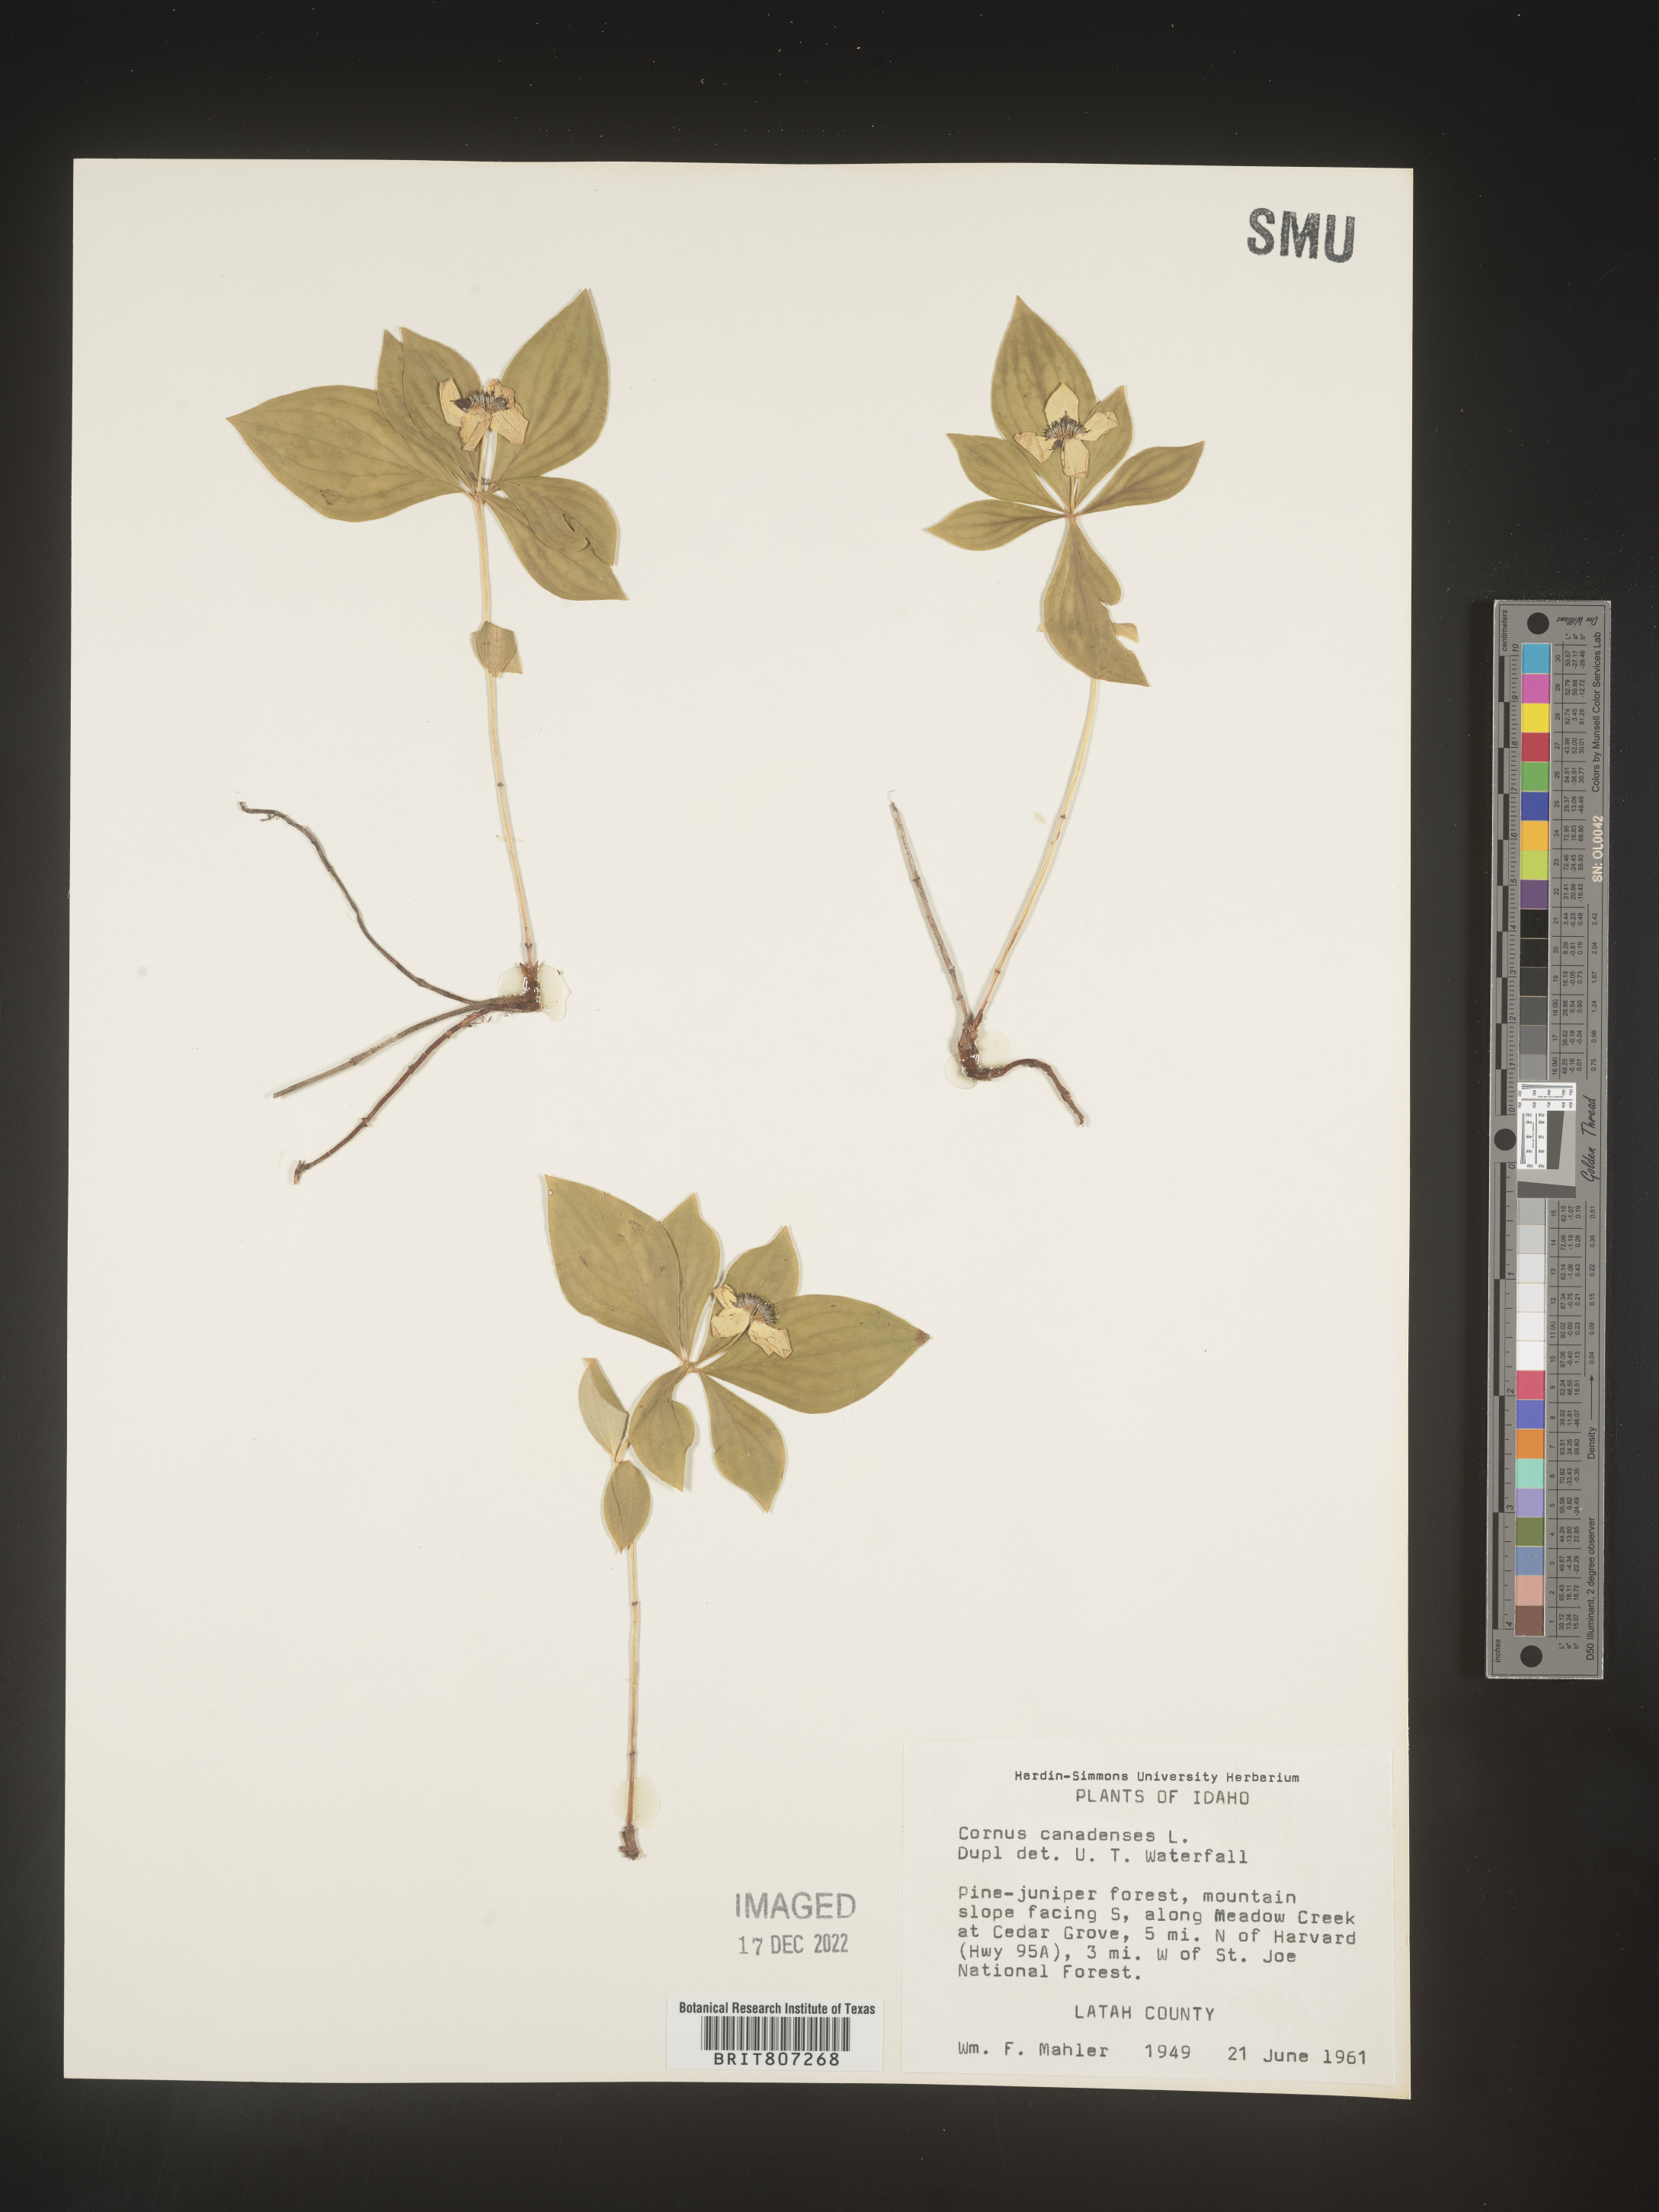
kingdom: Plantae
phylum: Tracheophyta
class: Magnoliopsida
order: Cornales
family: Cornaceae
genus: Cornus
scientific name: Cornus canadensis
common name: Creeping dogwood
